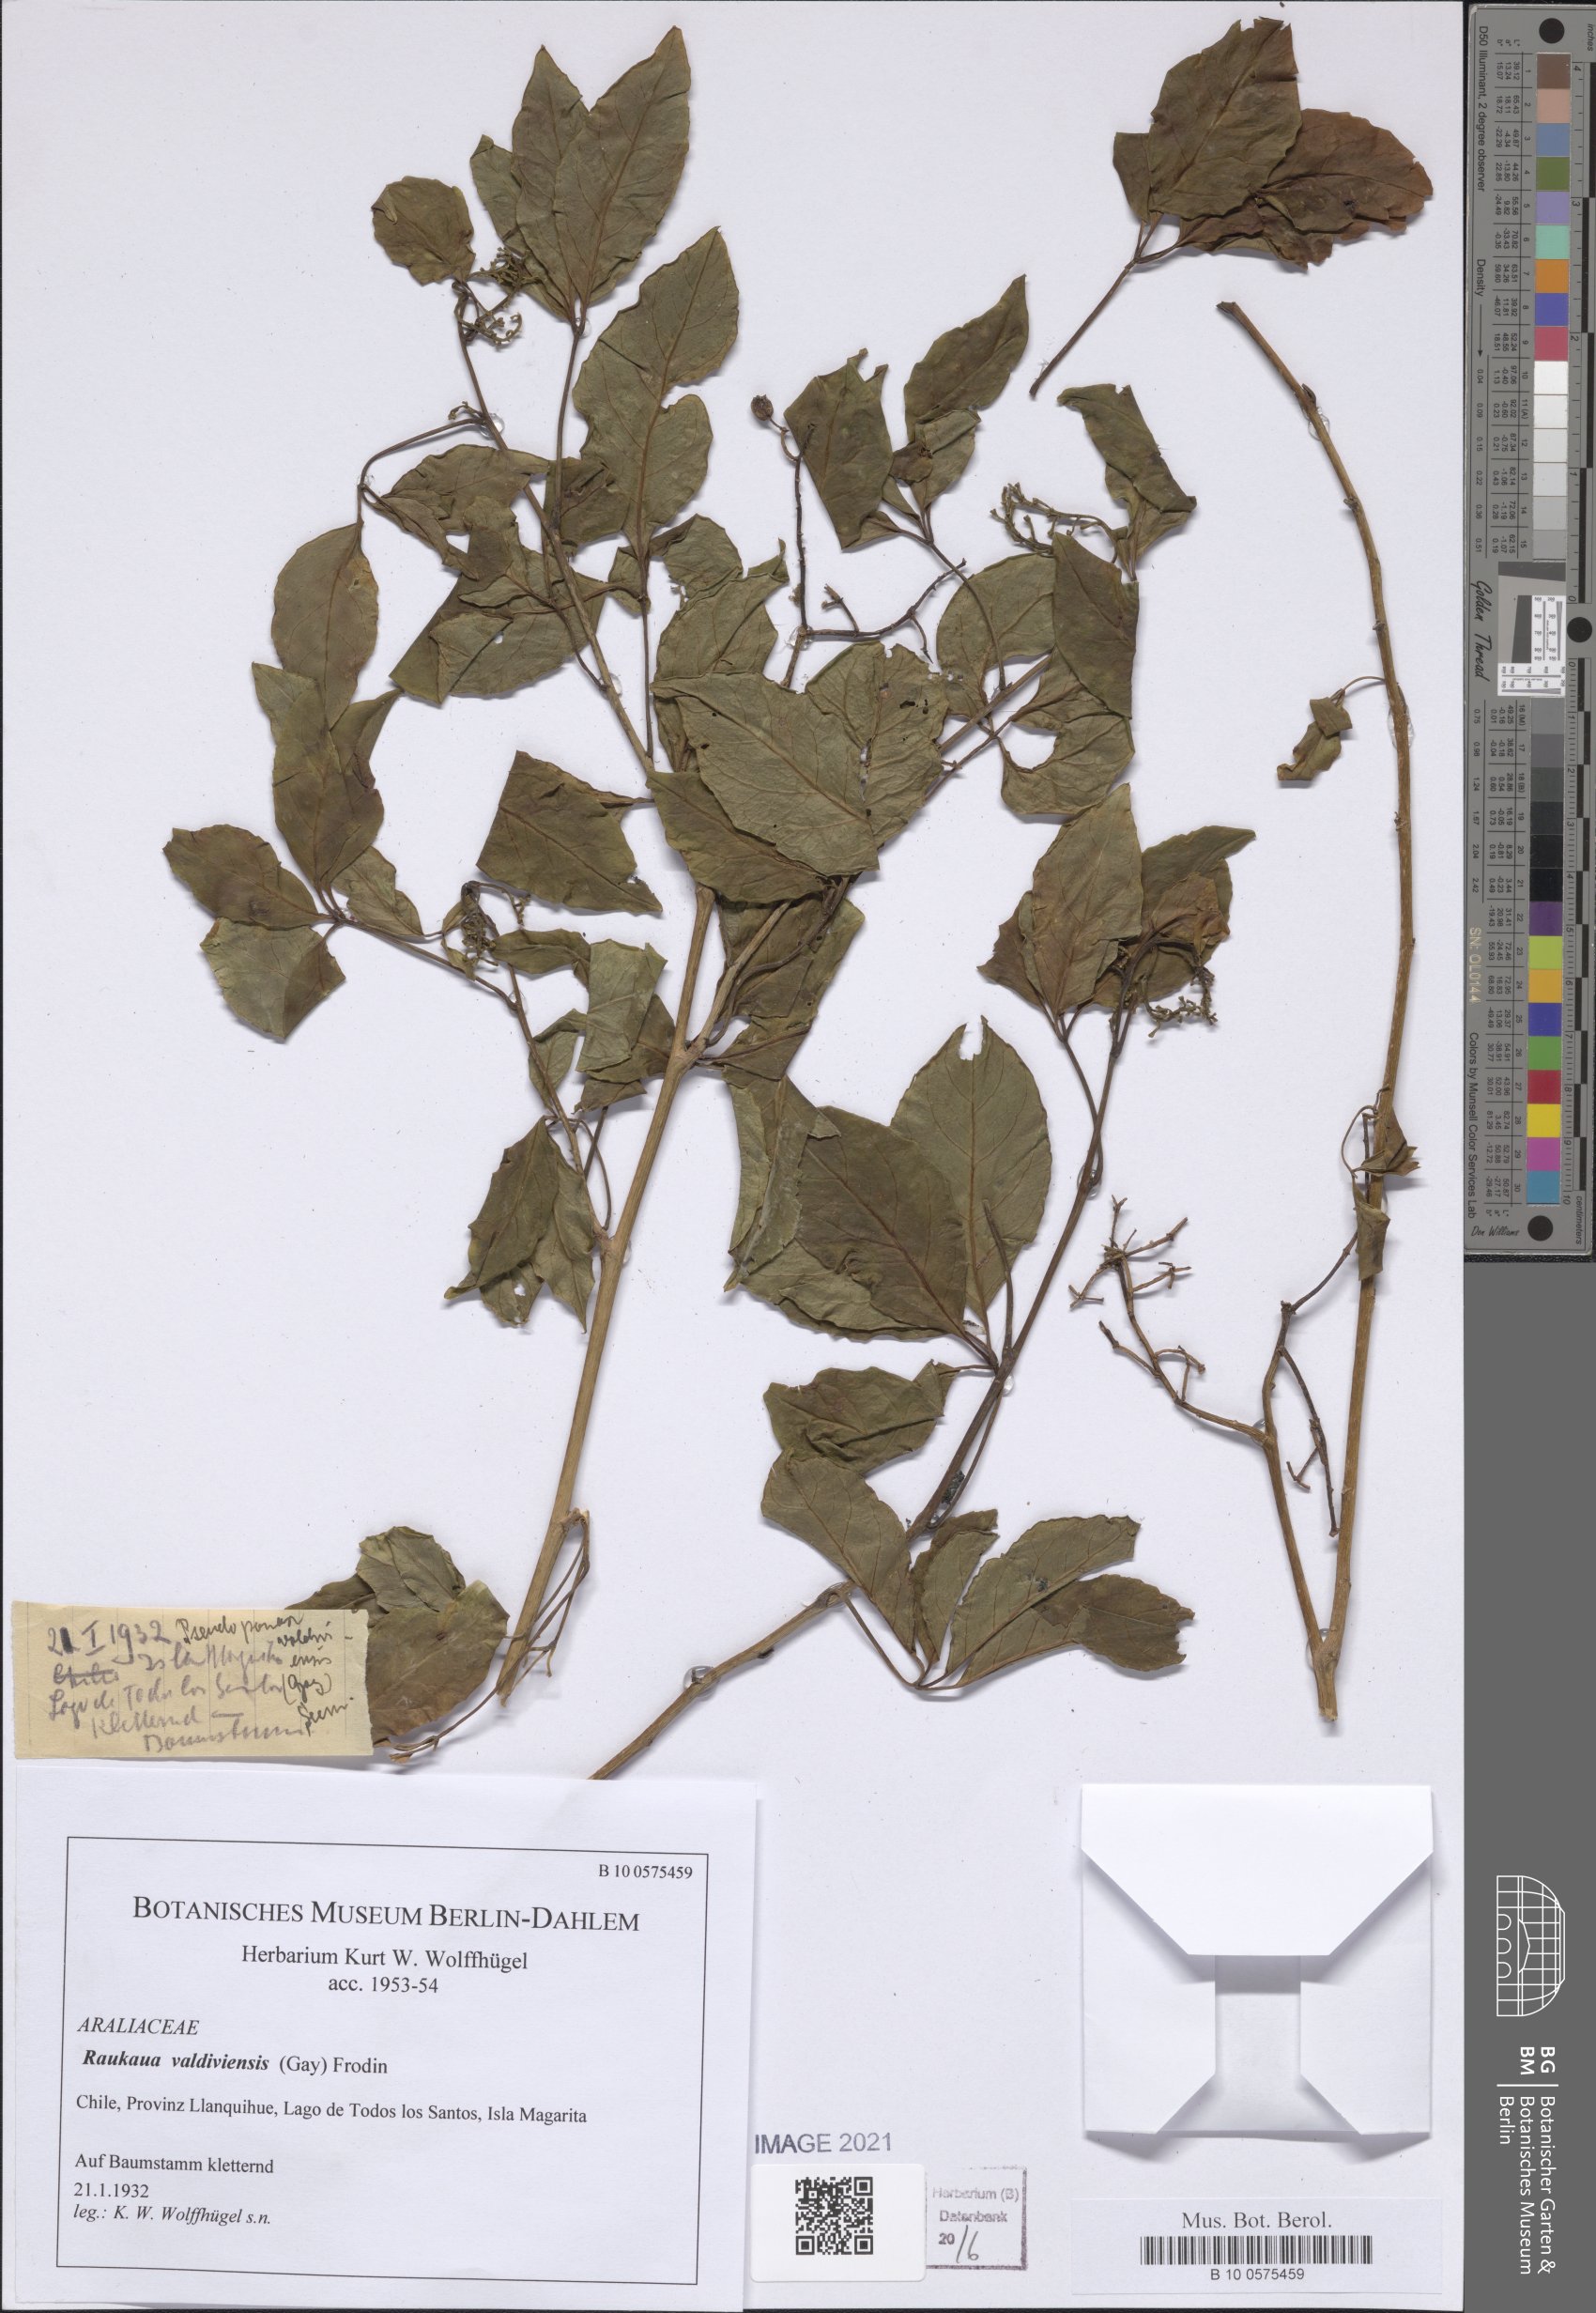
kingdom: Plantae
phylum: Tracheophyta
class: Magnoliopsida
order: Apiales
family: Araliaceae
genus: Raukaua
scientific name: Raukaua valdiviensis
